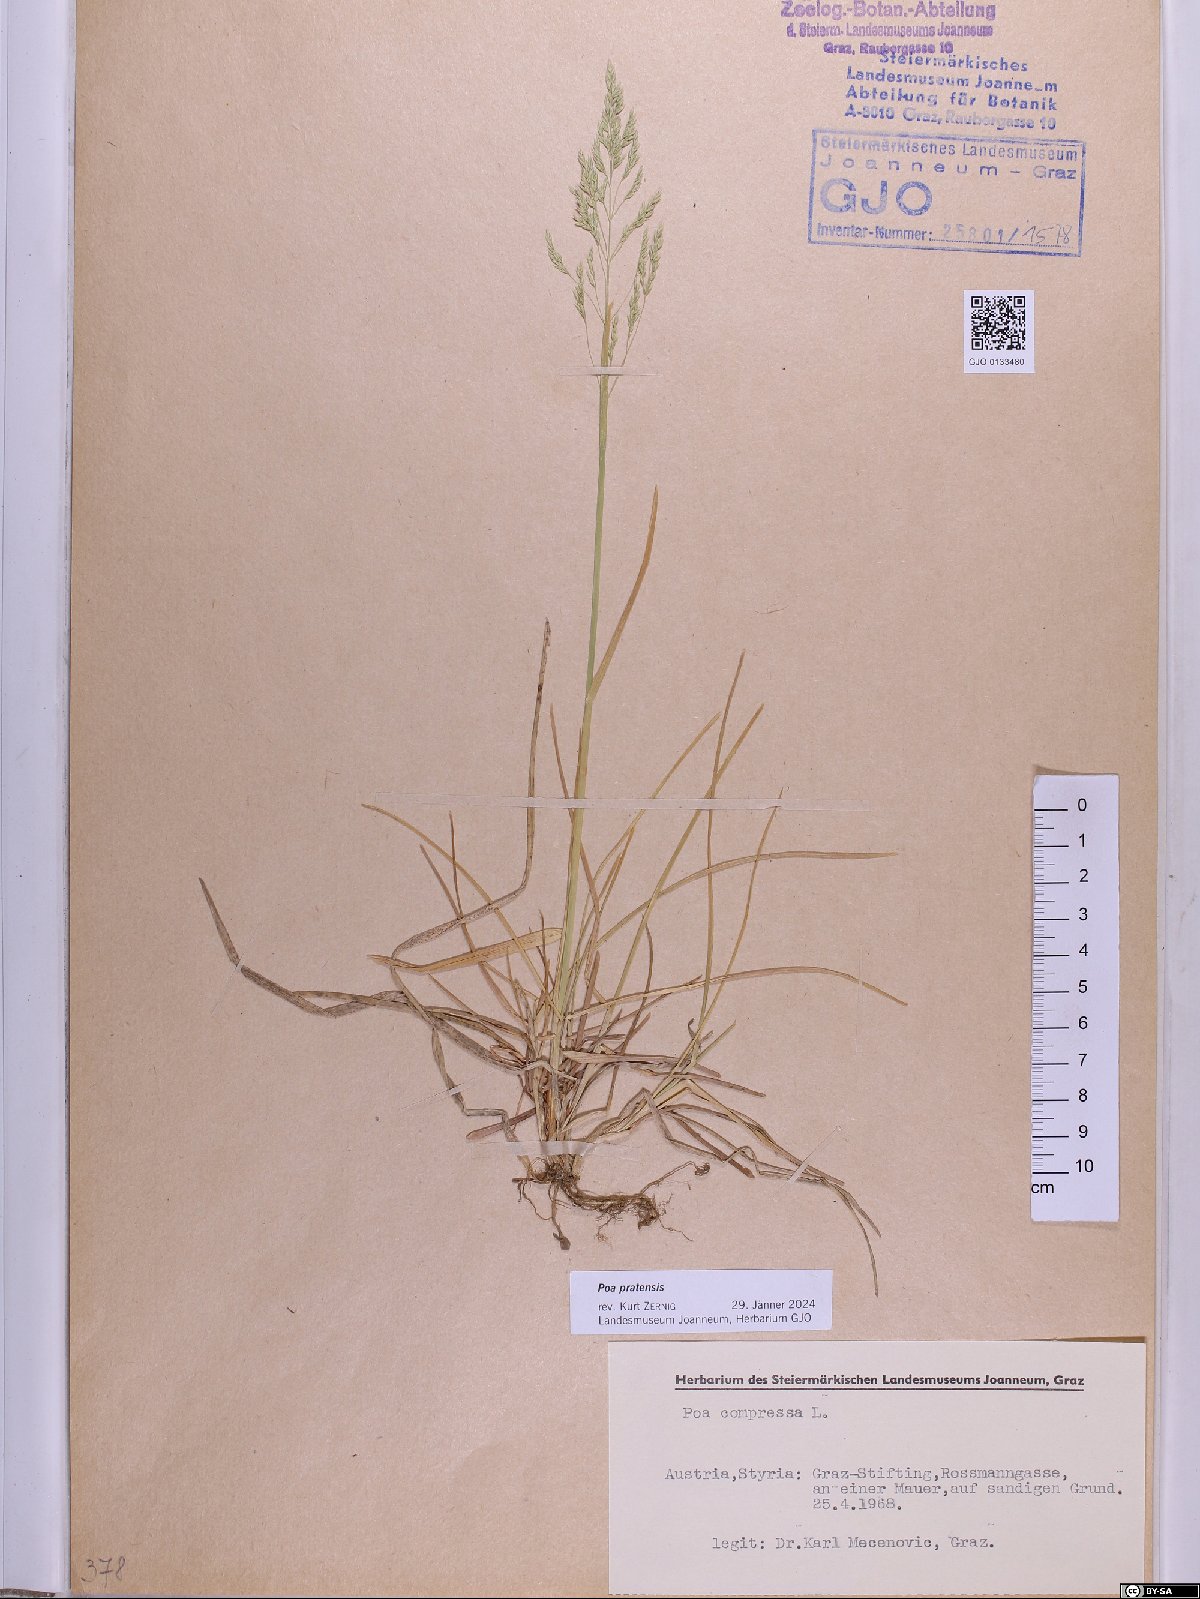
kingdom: Plantae
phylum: Tracheophyta
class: Liliopsida
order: Poales
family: Poaceae
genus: Poa
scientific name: Poa pratensis
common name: Kentucky bluegrass
